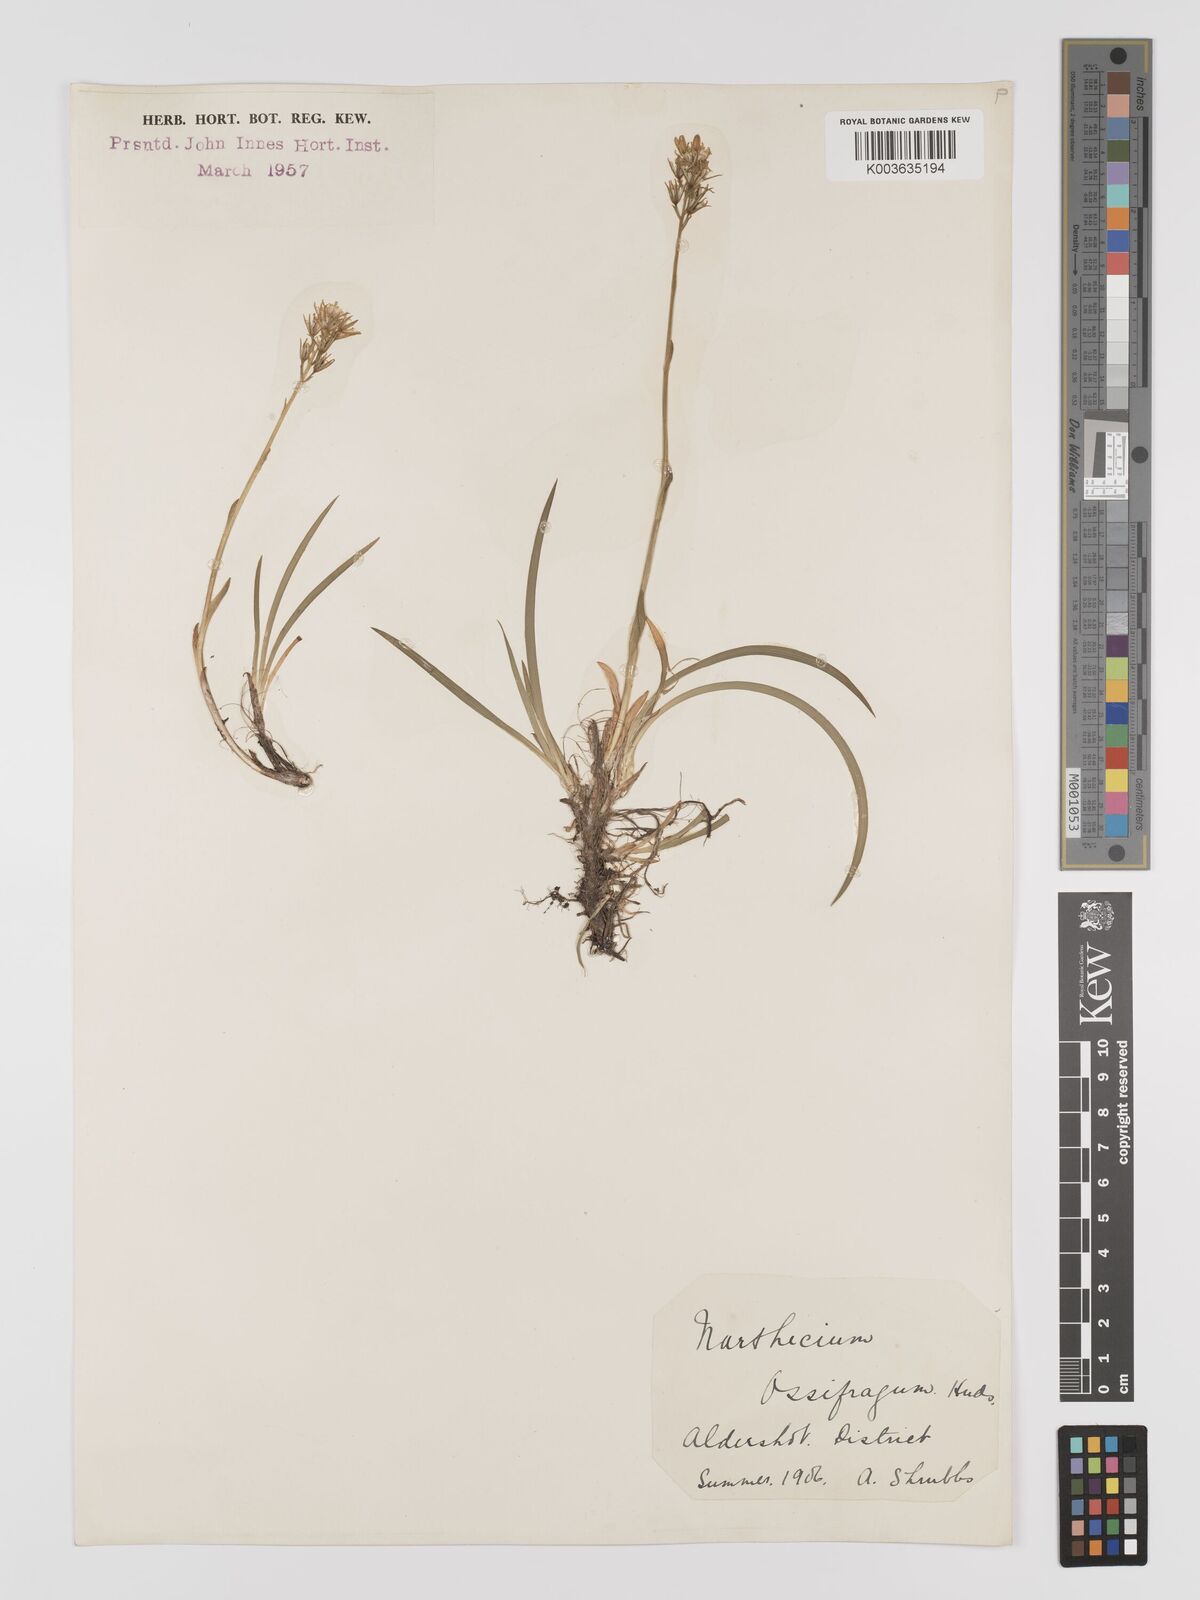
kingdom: Plantae
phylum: Tracheophyta
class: Liliopsida
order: Dioscoreales
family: Nartheciaceae
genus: Narthecium
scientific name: Narthecium
